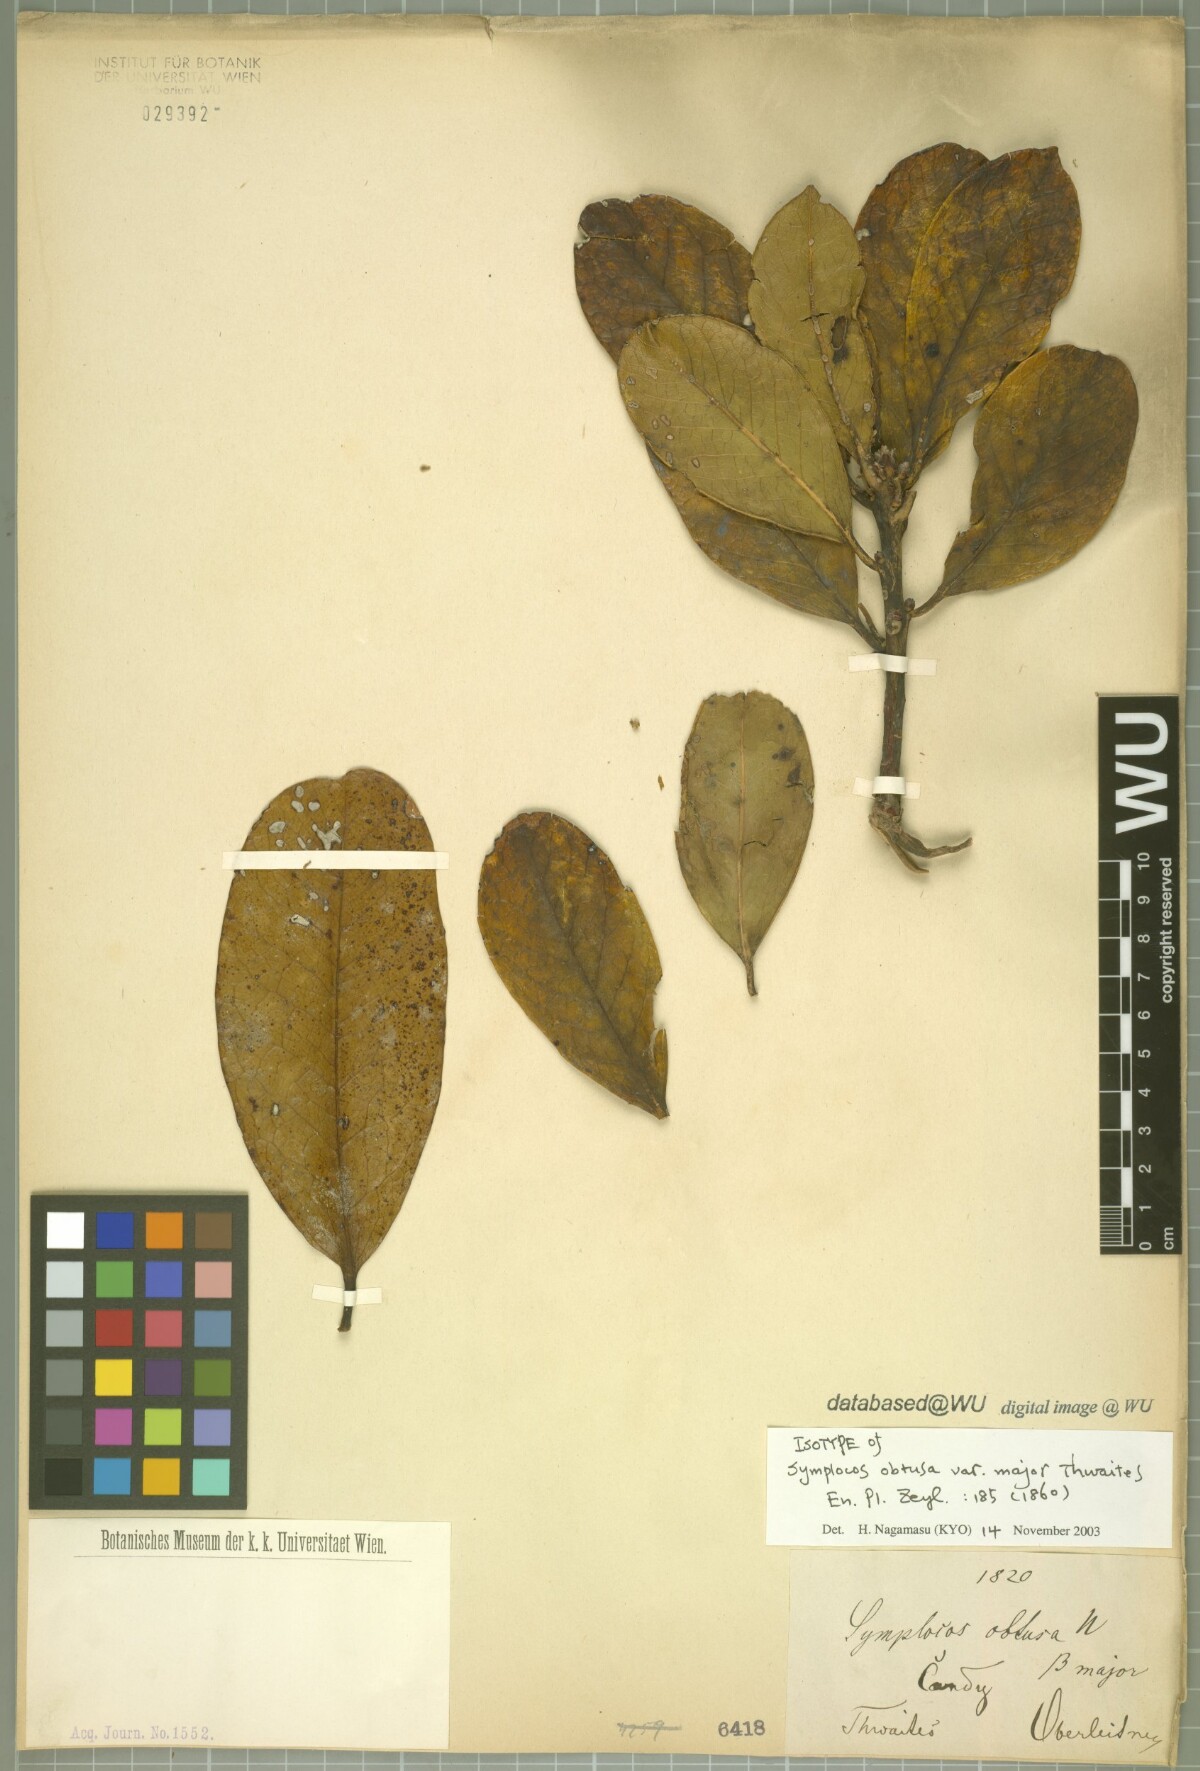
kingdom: Plantae
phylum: Tracheophyta
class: Magnoliopsida
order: Ericales
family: Symplocaceae
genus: Symplocos
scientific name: Symplocos obtusa
